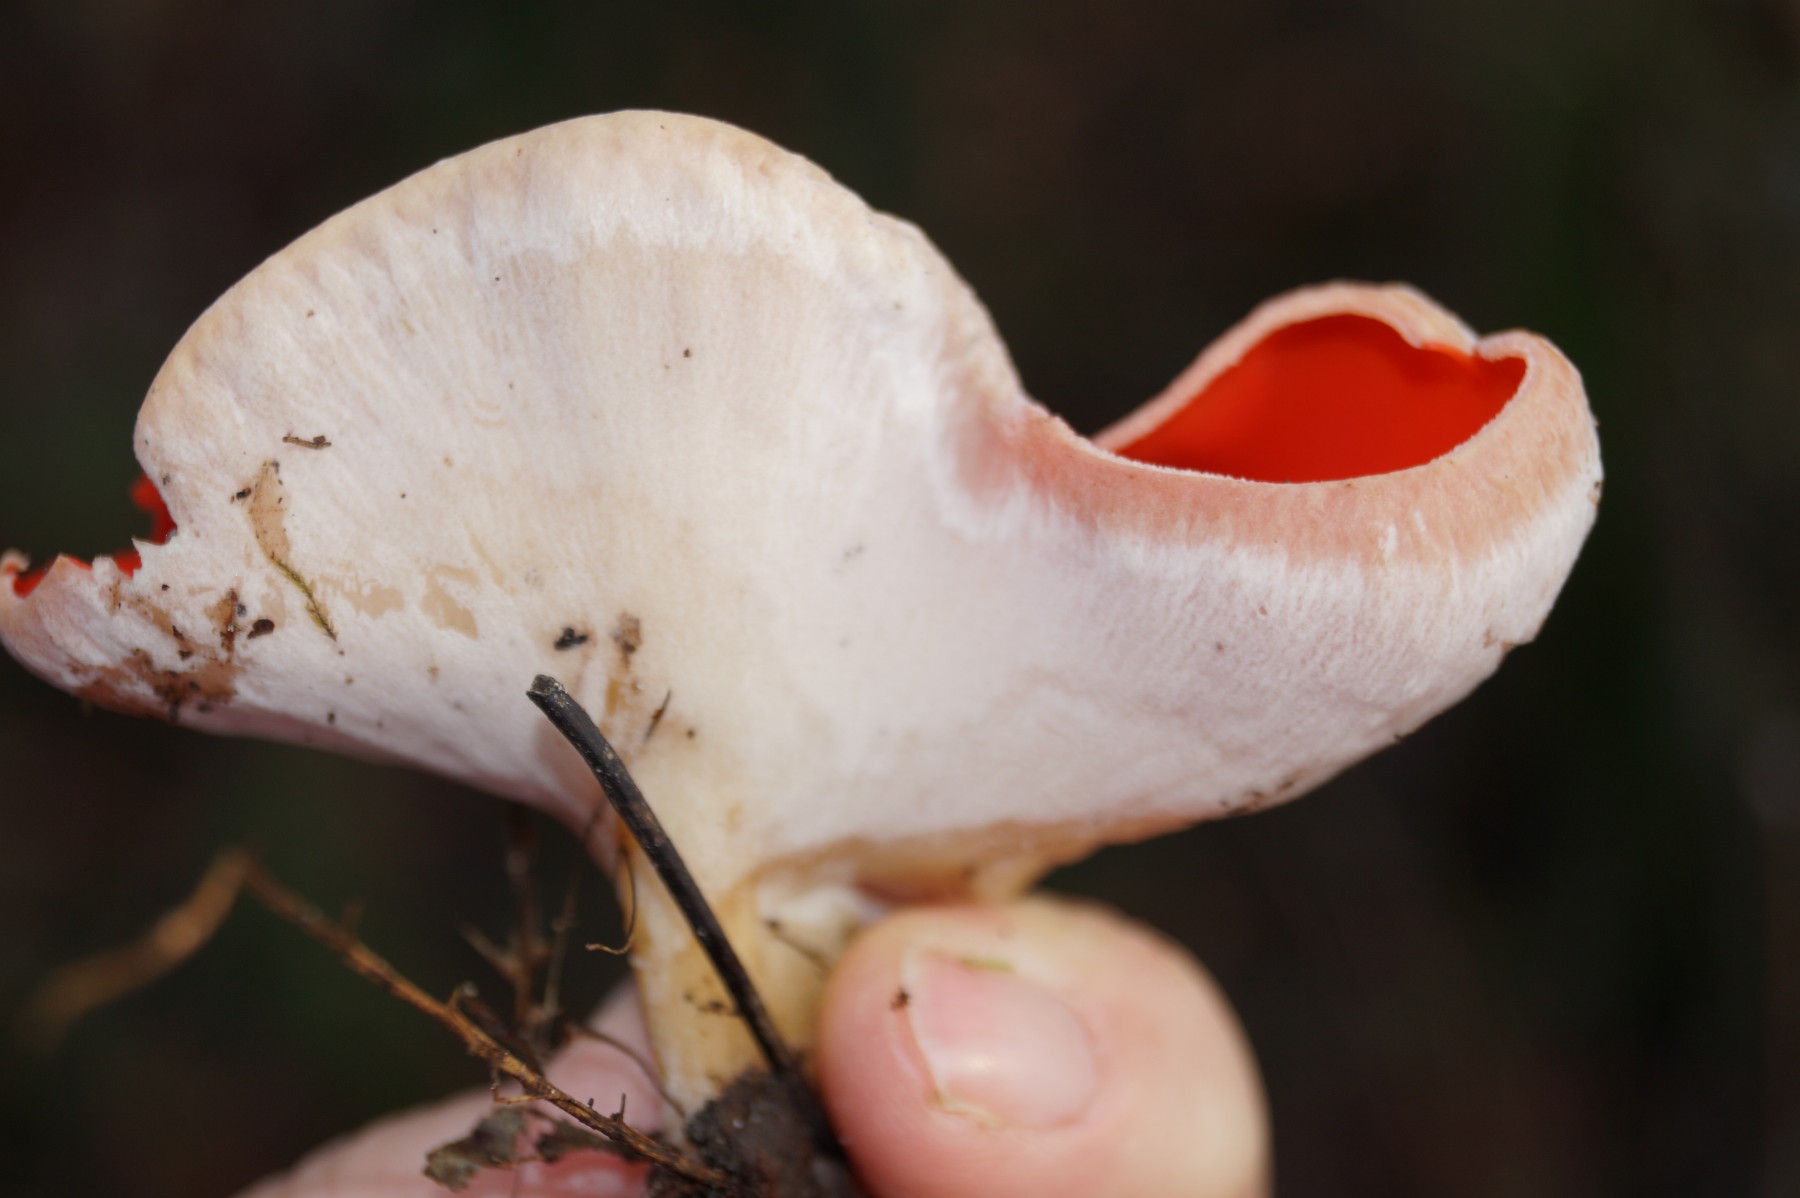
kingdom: Fungi
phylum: Ascomycota
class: Pezizomycetes
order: Pezizales
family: Sarcoscyphaceae
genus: Sarcoscypha
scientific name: Sarcoscypha austriaca
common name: krølhåret pragtbæger
